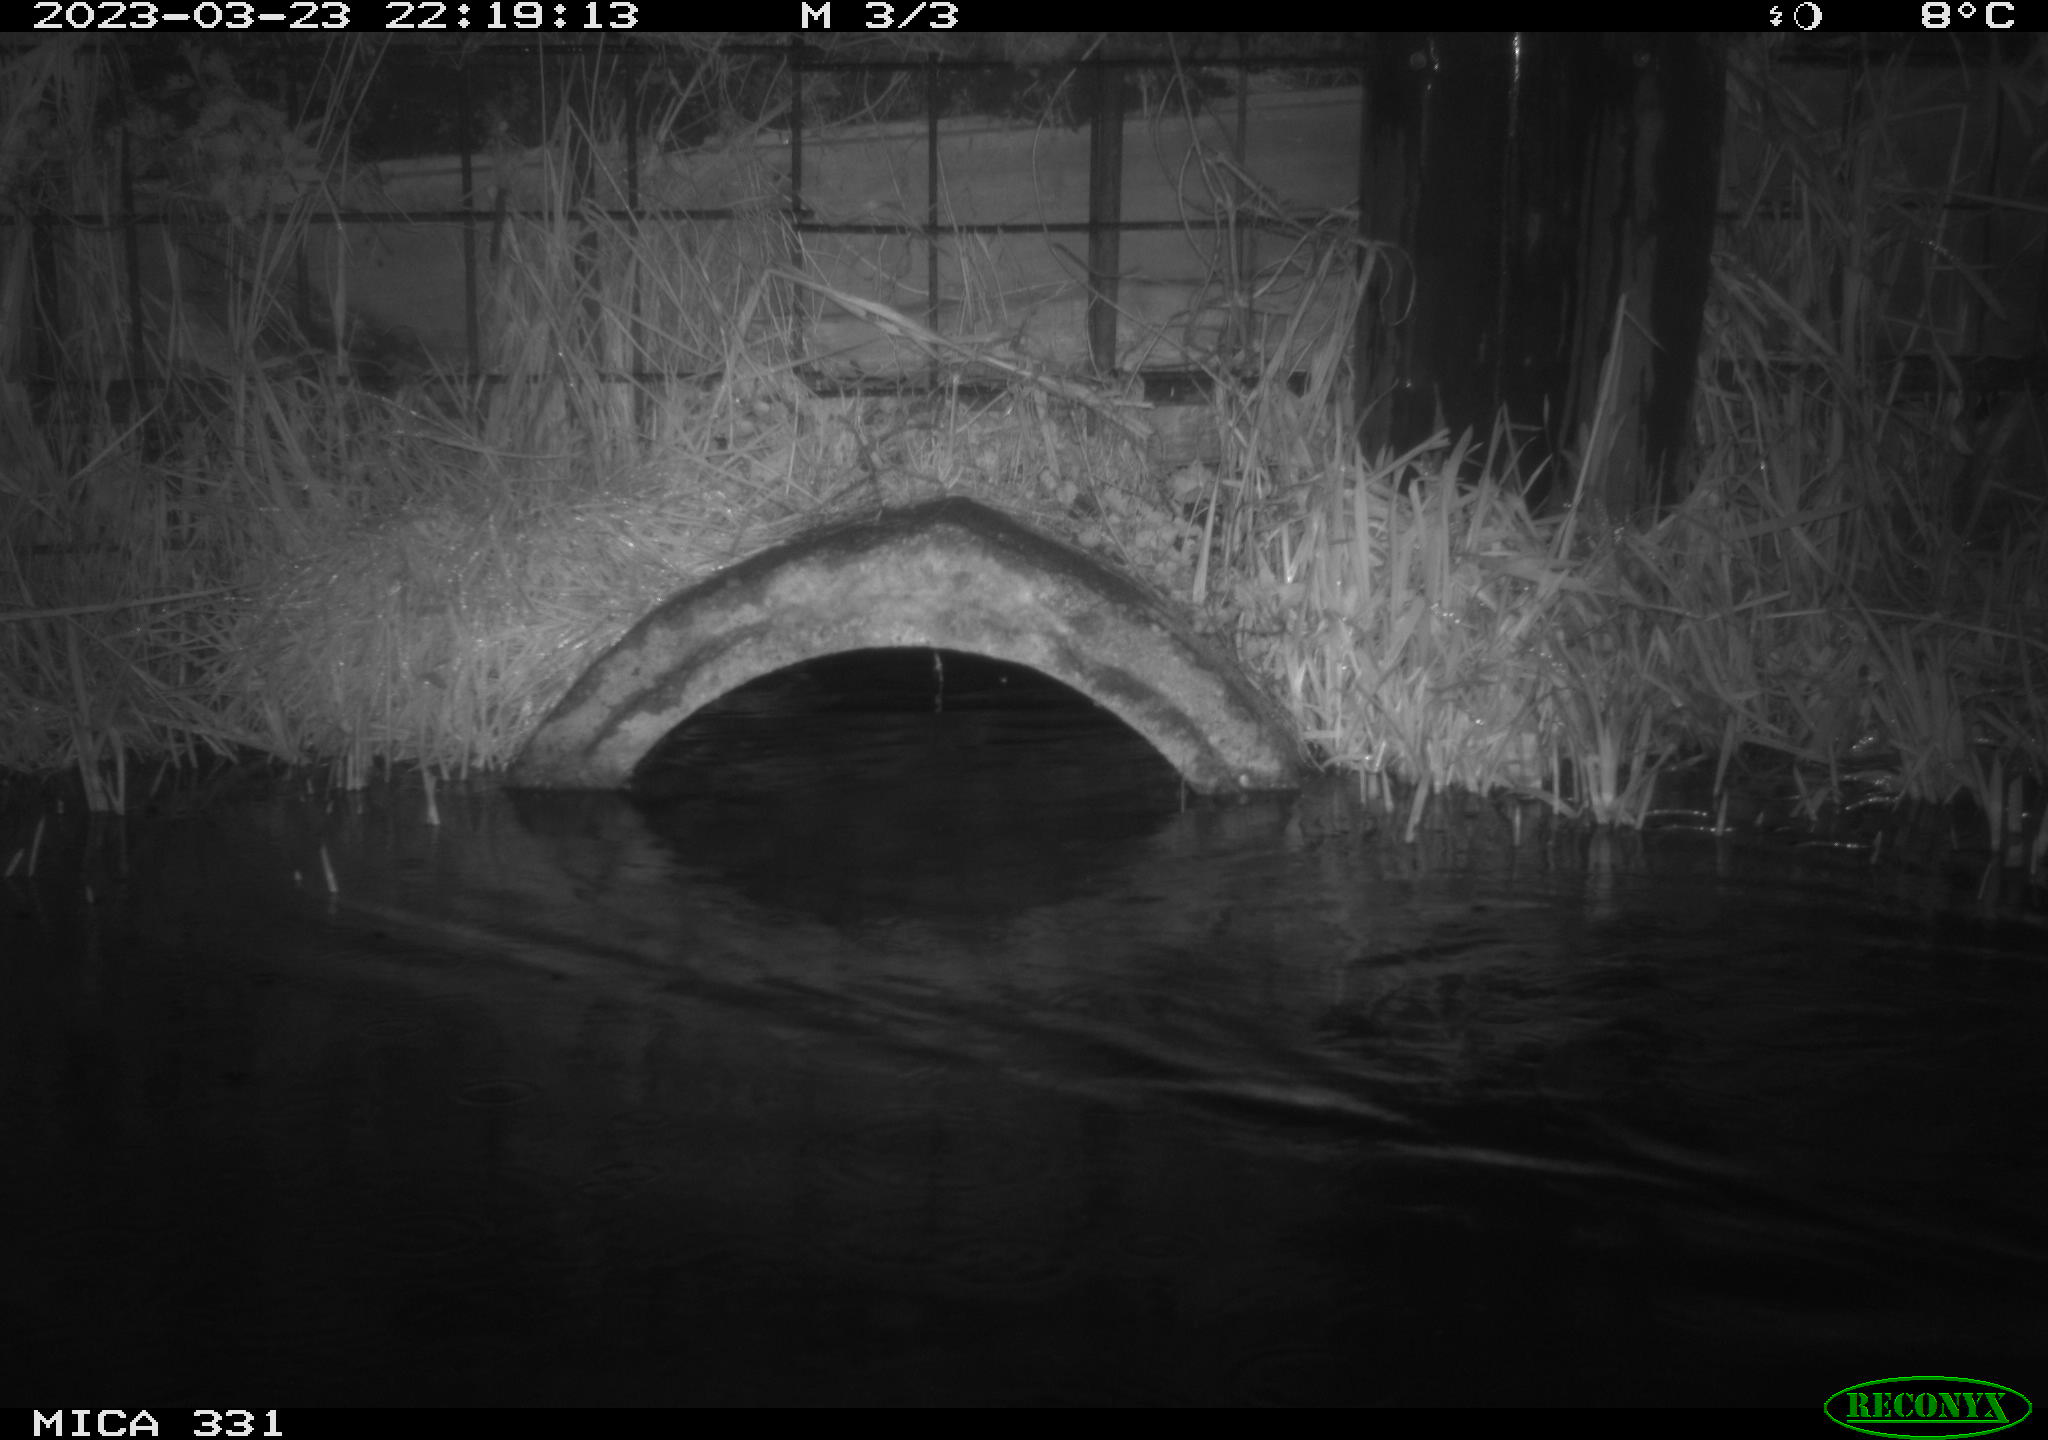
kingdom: Animalia
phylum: Chordata
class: Mammalia
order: Rodentia
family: Cricetidae
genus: Ondatra
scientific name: Ondatra zibethicus
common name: Muskrat
